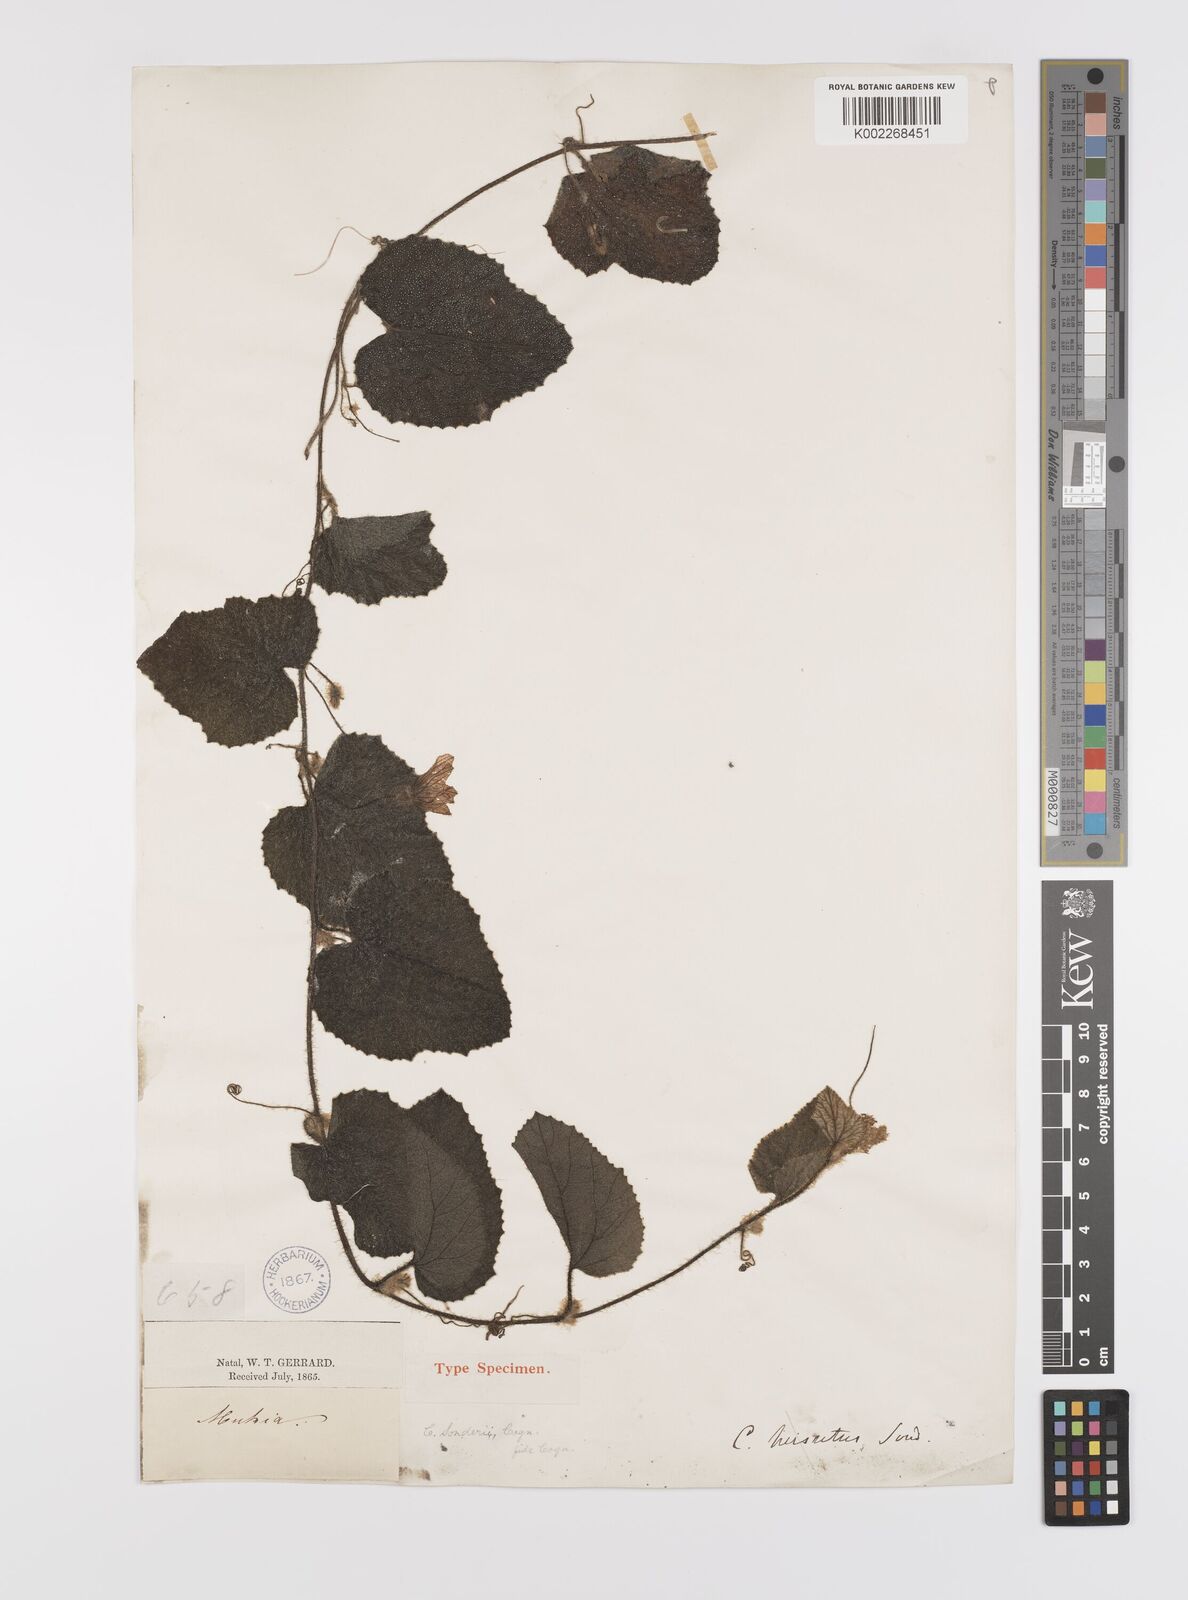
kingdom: Plantae
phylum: Tracheophyta
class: Magnoliopsida
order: Cucurbitales
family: Cucurbitaceae
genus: Cucumis
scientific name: Cucumis hirsutus
